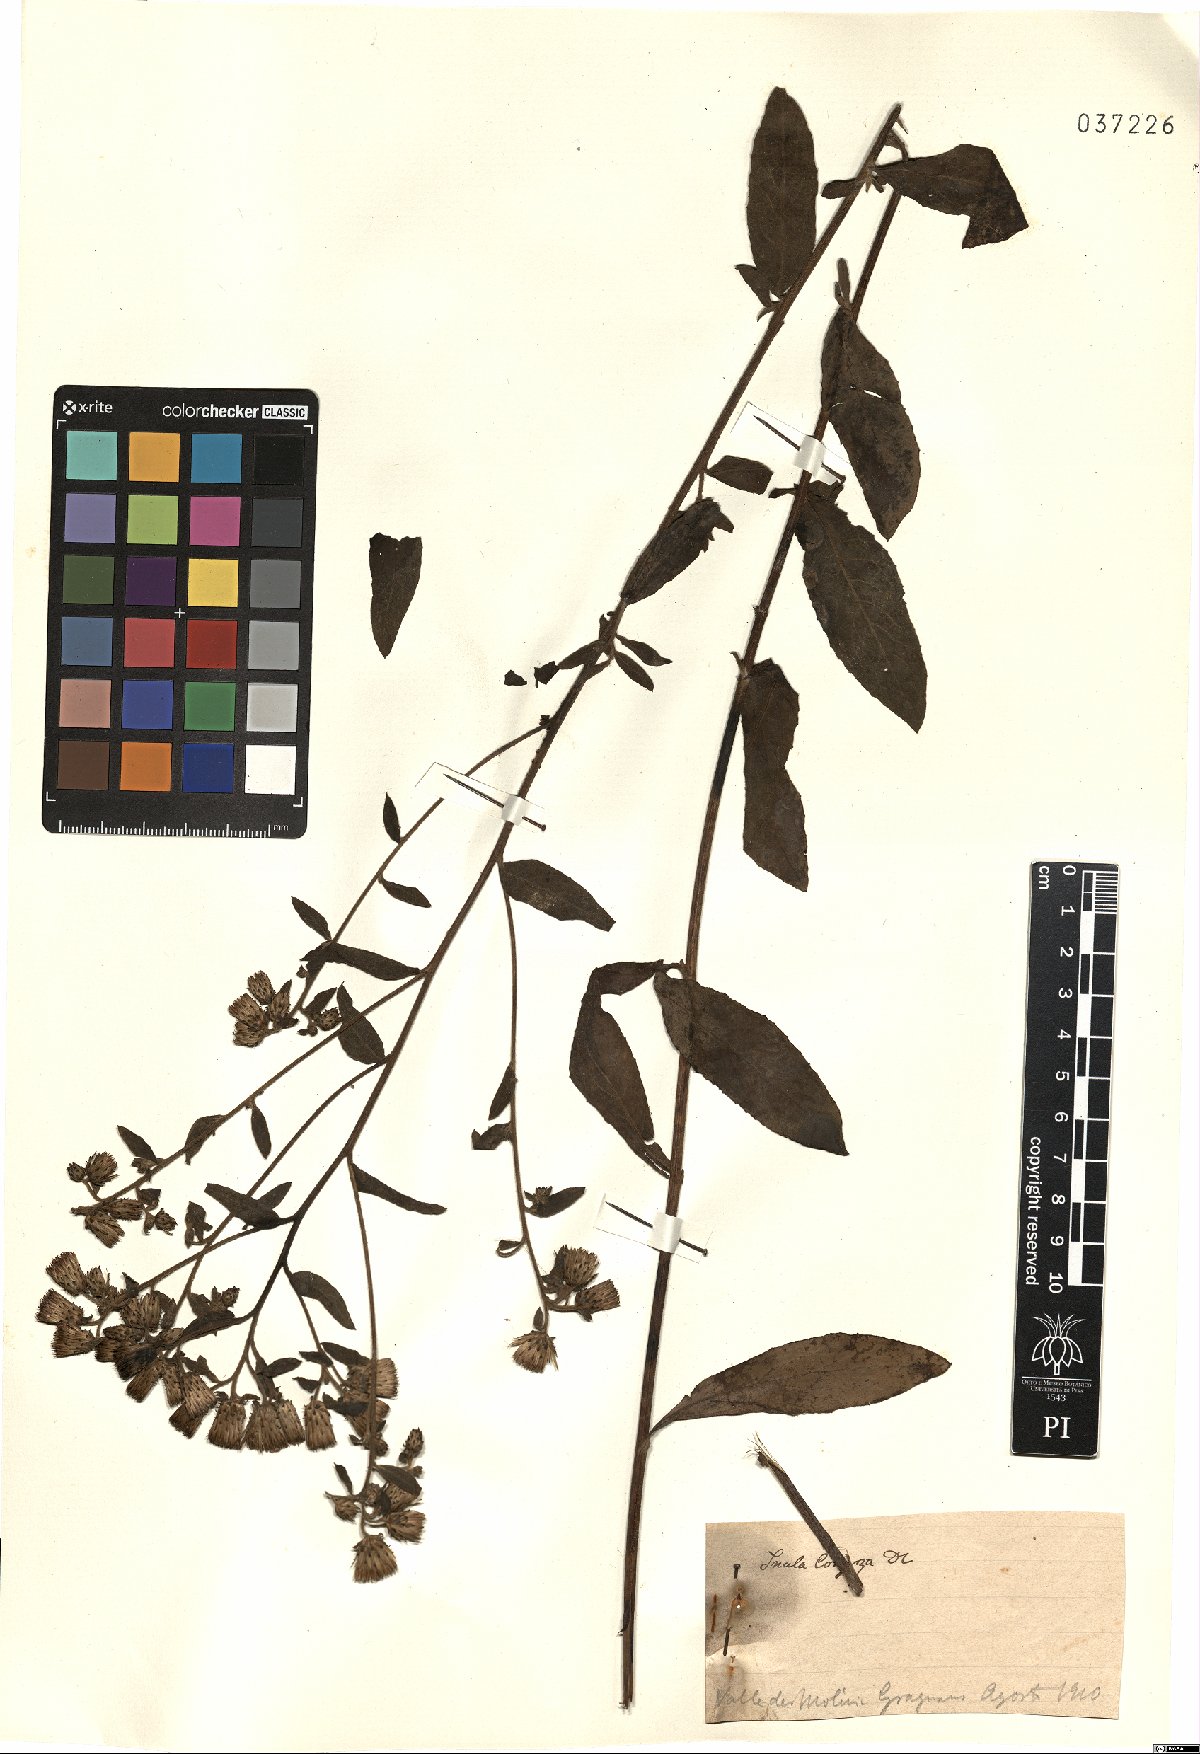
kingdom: Plantae
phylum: Tracheophyta
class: Magnoliopsida
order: Asterales
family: Asteraceae
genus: Pentanema
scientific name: Pentanema squarrosum
